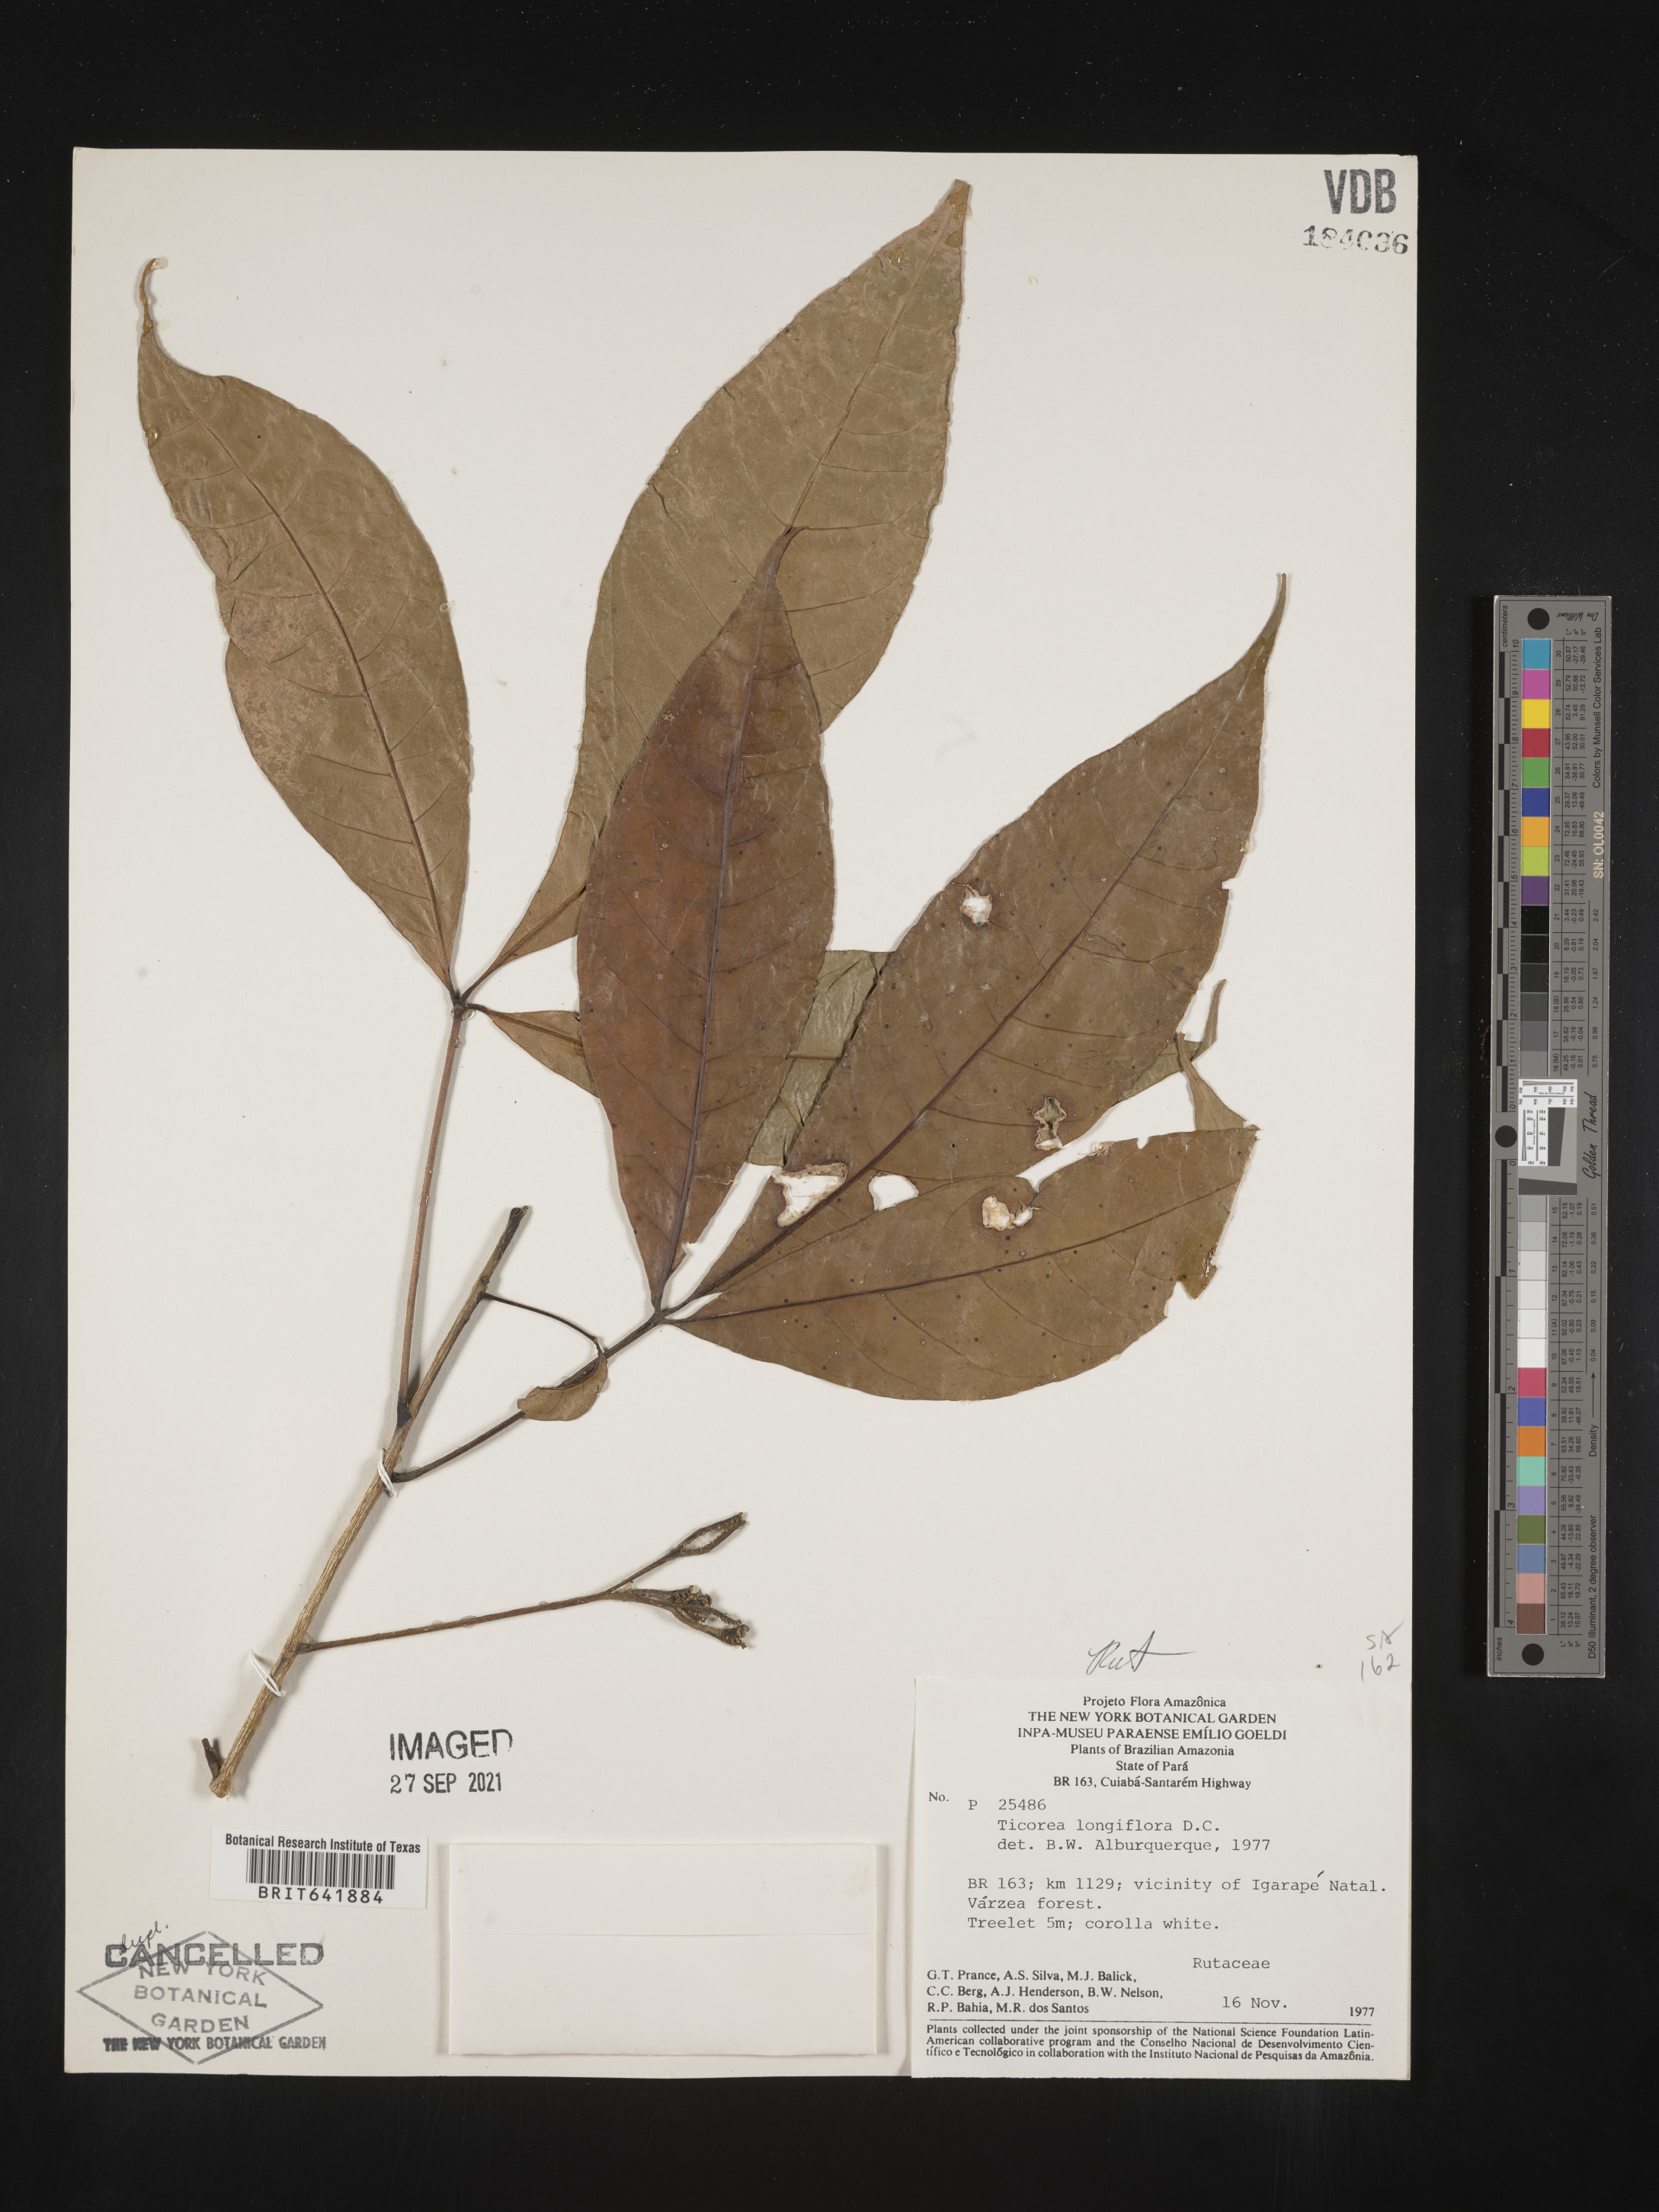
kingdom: Plantae
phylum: Tracheophyta
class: Magnoliopsida
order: Sapindales
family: Rutaceae
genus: Ticorea
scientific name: Ticorea longiflora
